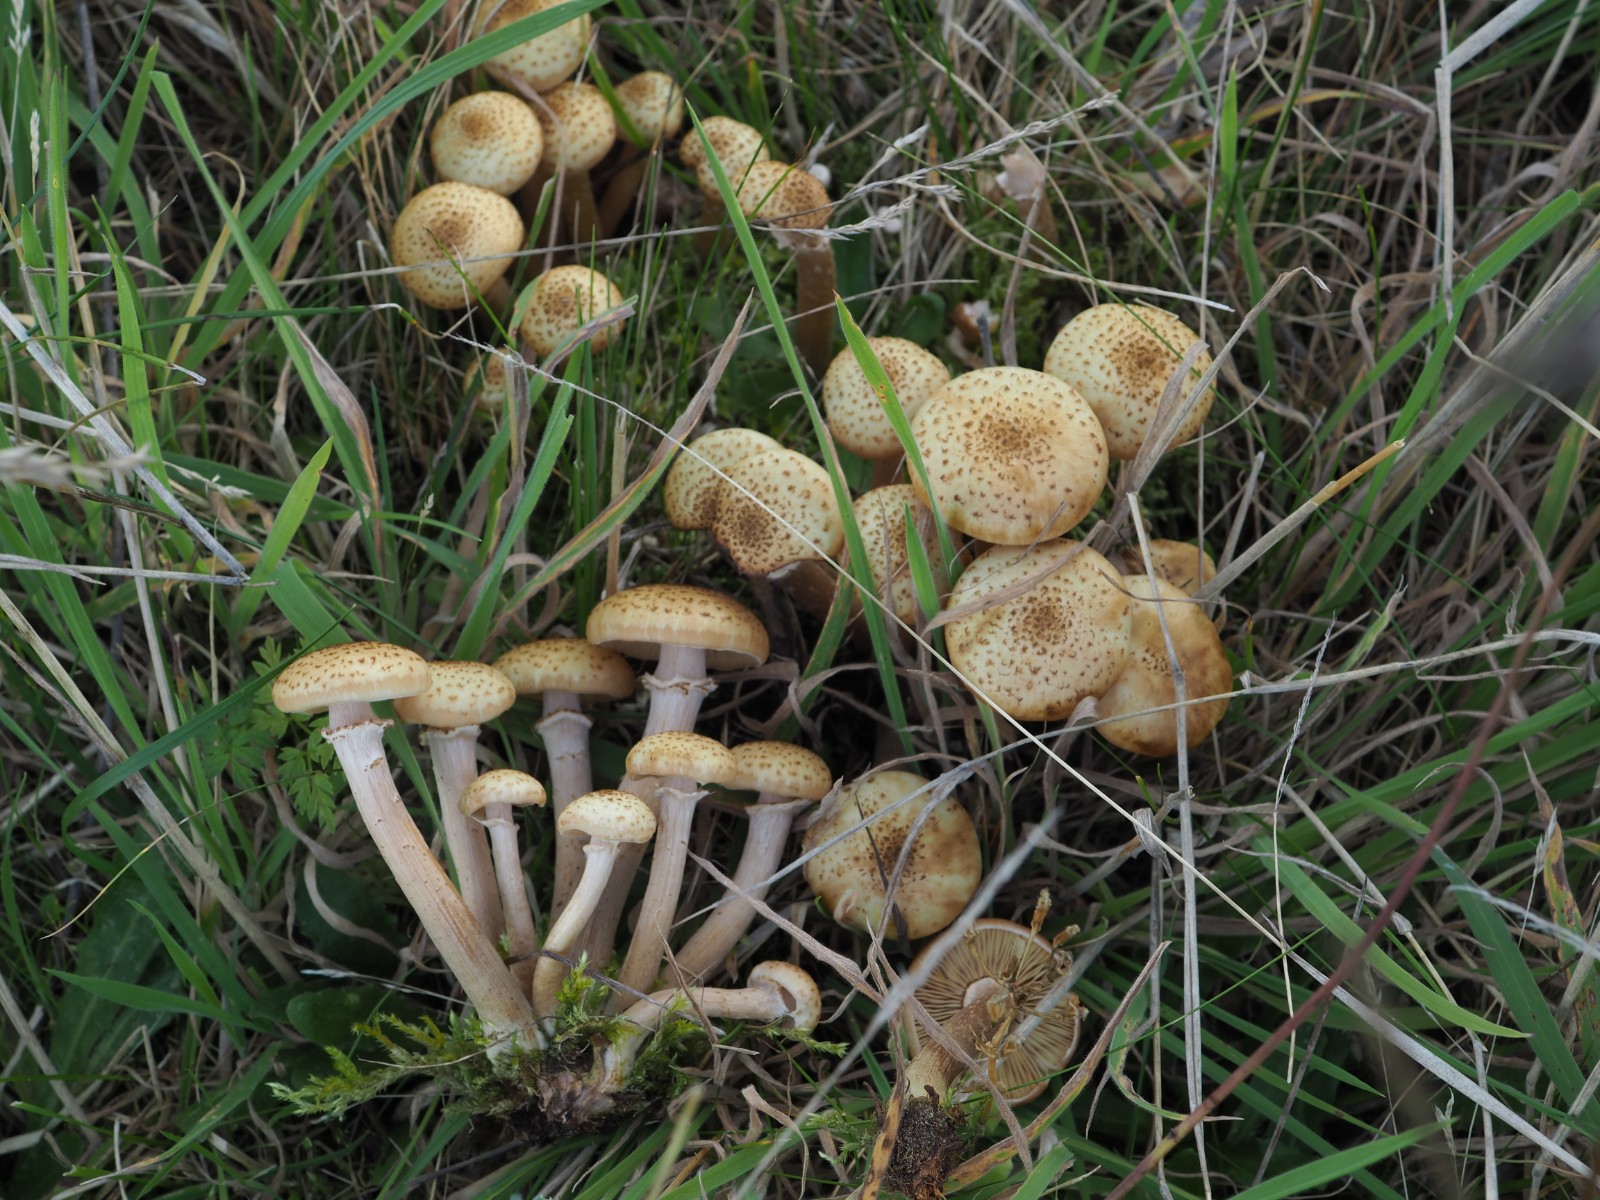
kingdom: Fungi
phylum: Basidiomycota
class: Agaricomycetes
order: Agaricales
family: Physalacriaceae
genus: Armillaria
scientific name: Armillaria mellea
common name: ægte honningsvamp
